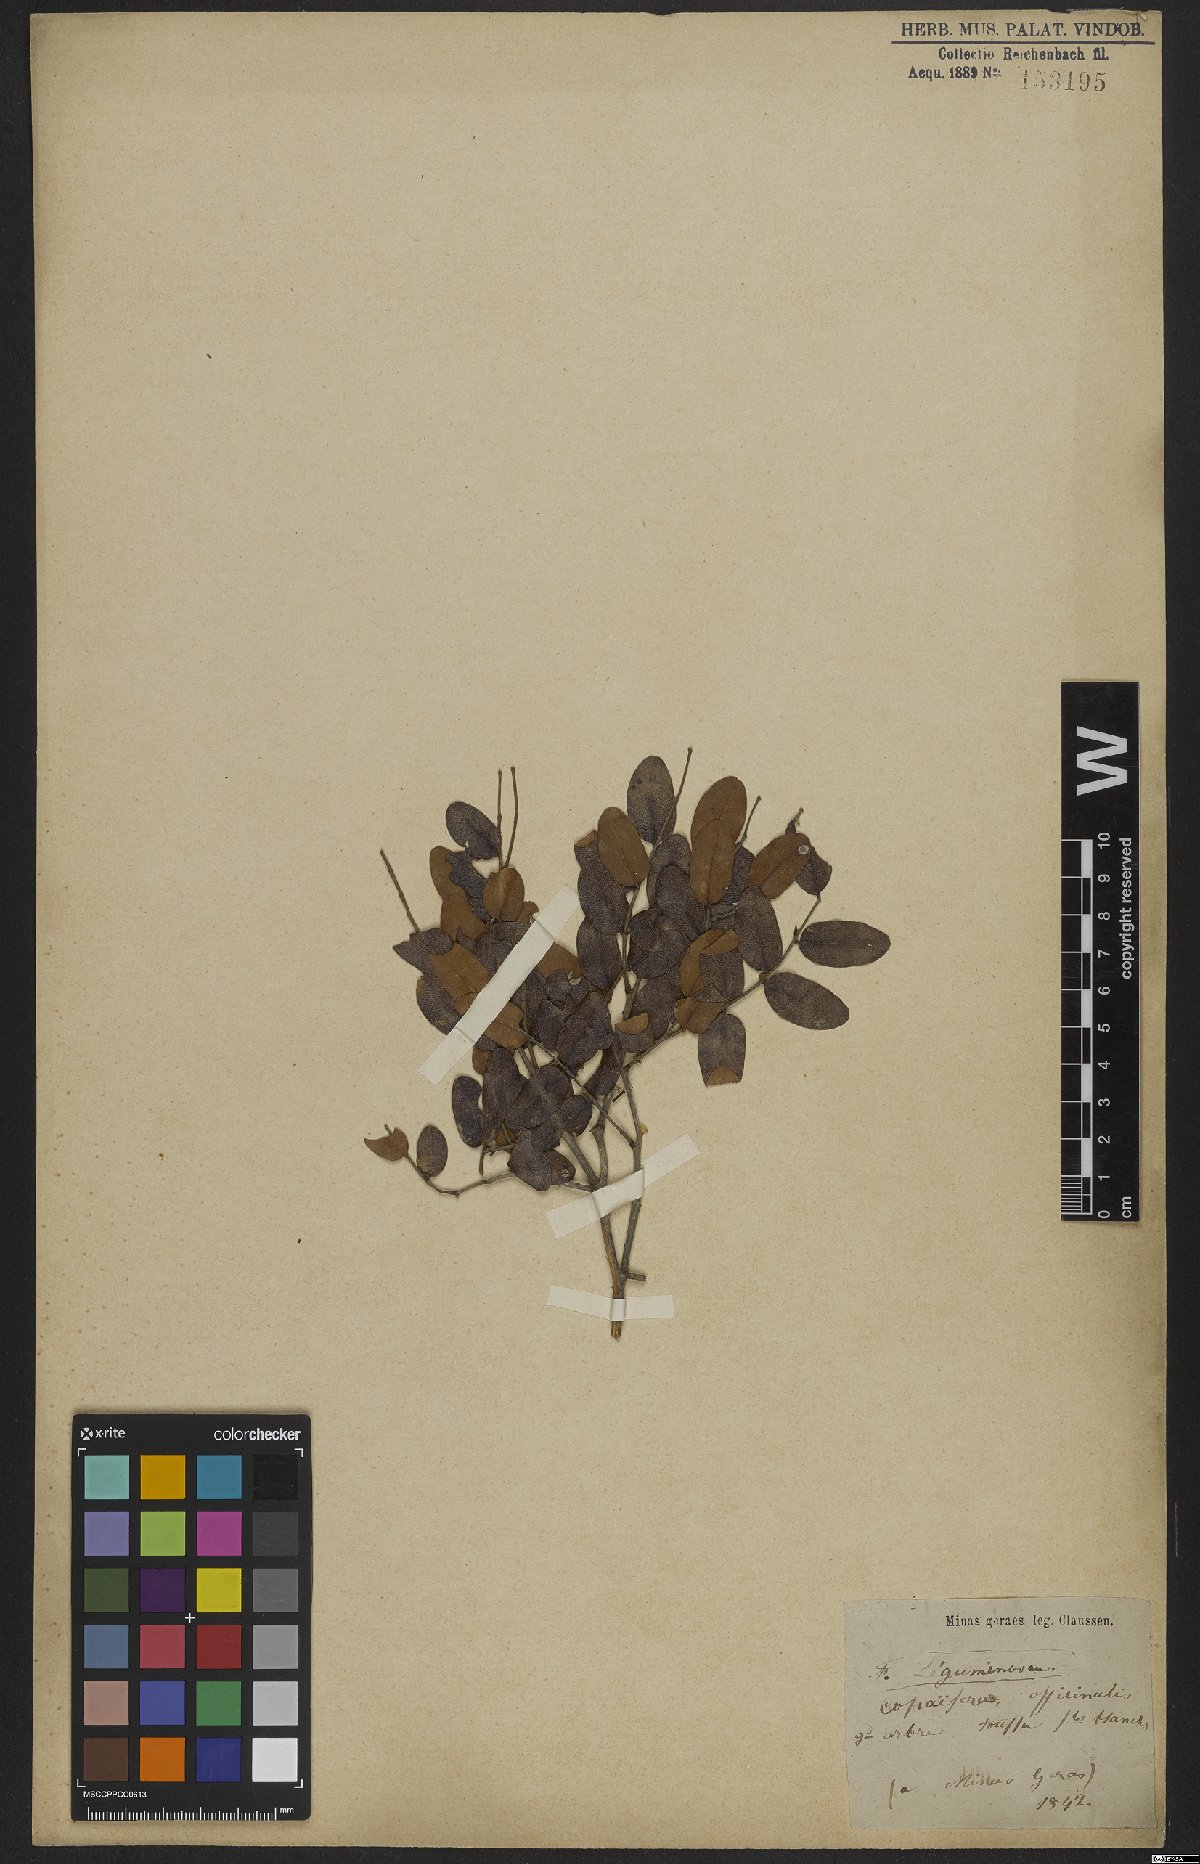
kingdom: Plantae
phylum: Tracheophyta
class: Magnoliopsida
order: Fabales
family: Fabaceae
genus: Copaifera
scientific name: Copaifera officinalis
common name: Copaiba
